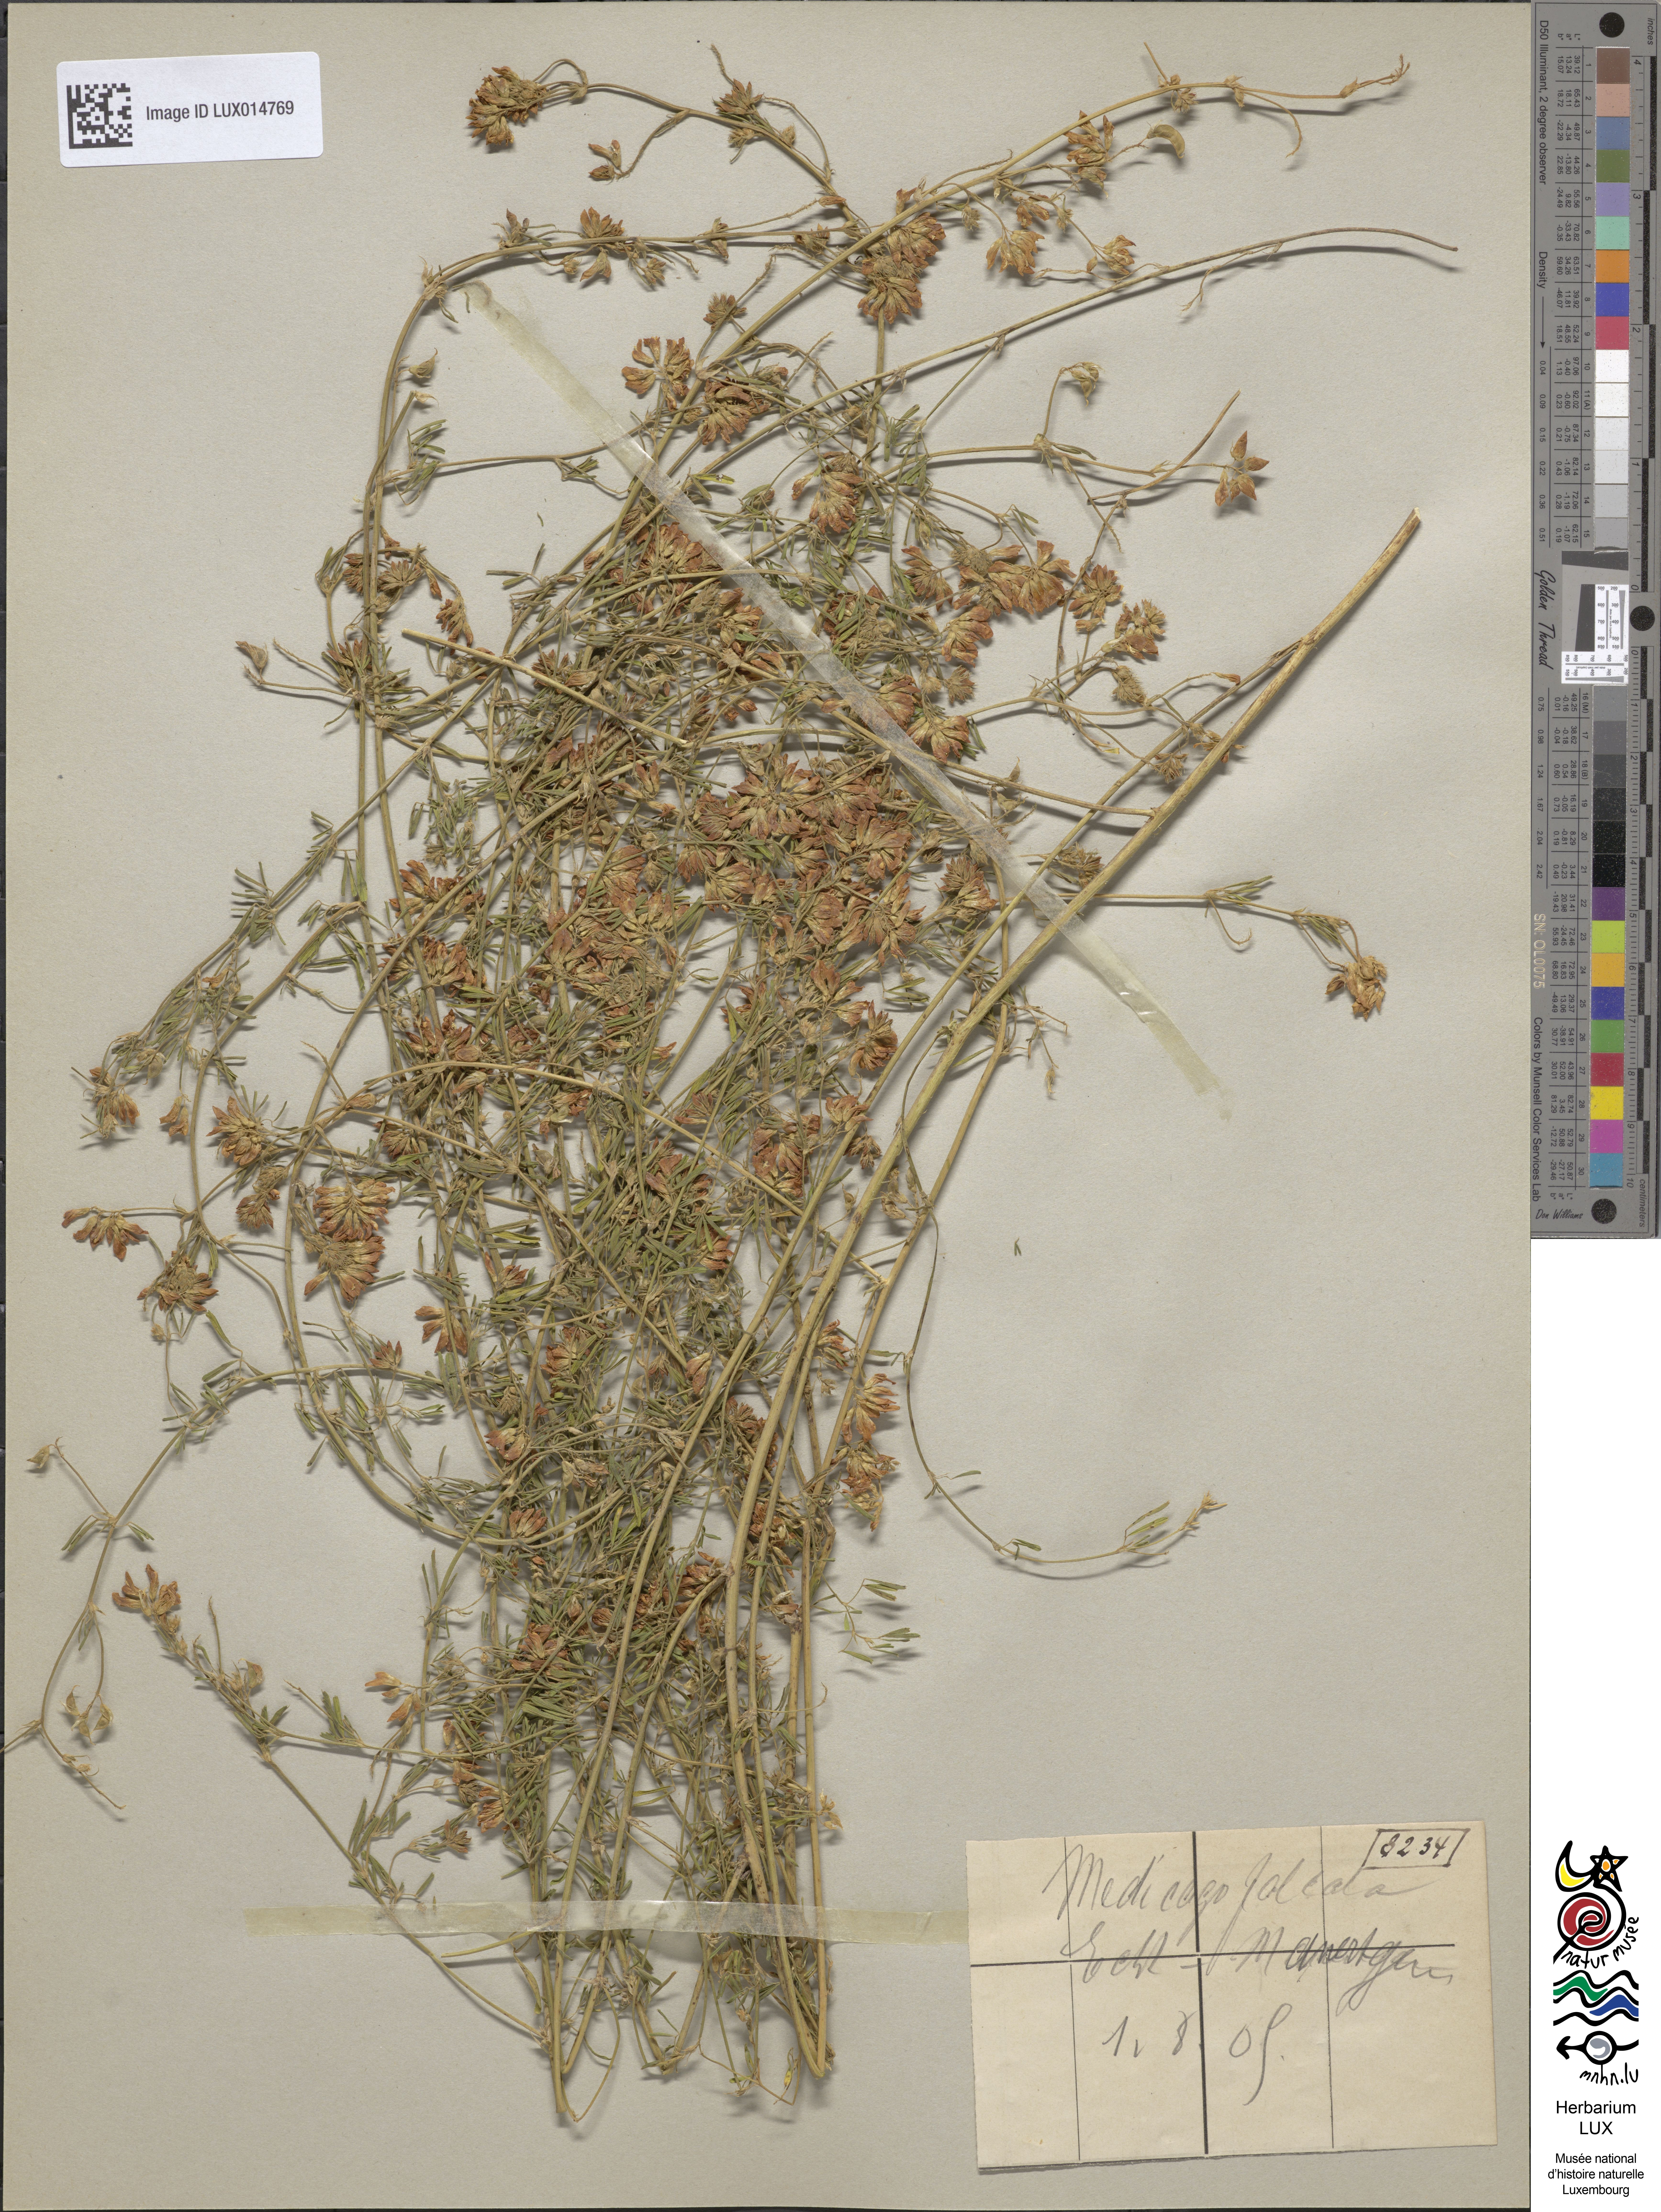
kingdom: Plantae
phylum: Tracheophyta
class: Magnoliopsida
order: Fabales
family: Fabaceae
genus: Medicago
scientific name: Medicago falcata
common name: Sickle medick
